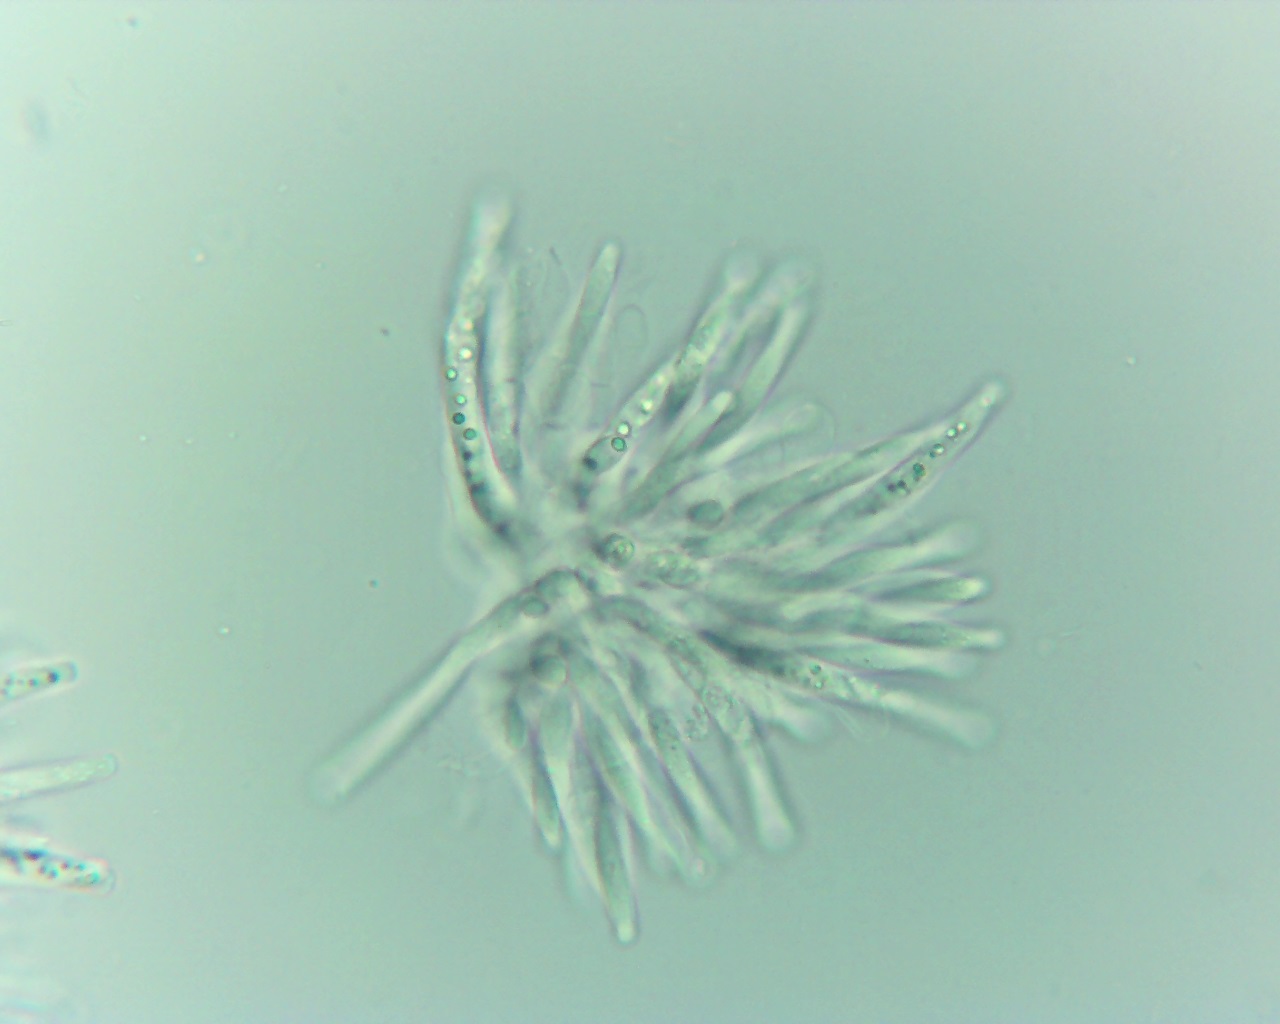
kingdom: Fungi
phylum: Ascomycota
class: Sordariomycetes
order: Hypocreales
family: Nectriaceae
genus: Dialonectria
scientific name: Dialonectria episphaeria
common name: kulskorpe-cinnobersvamp
